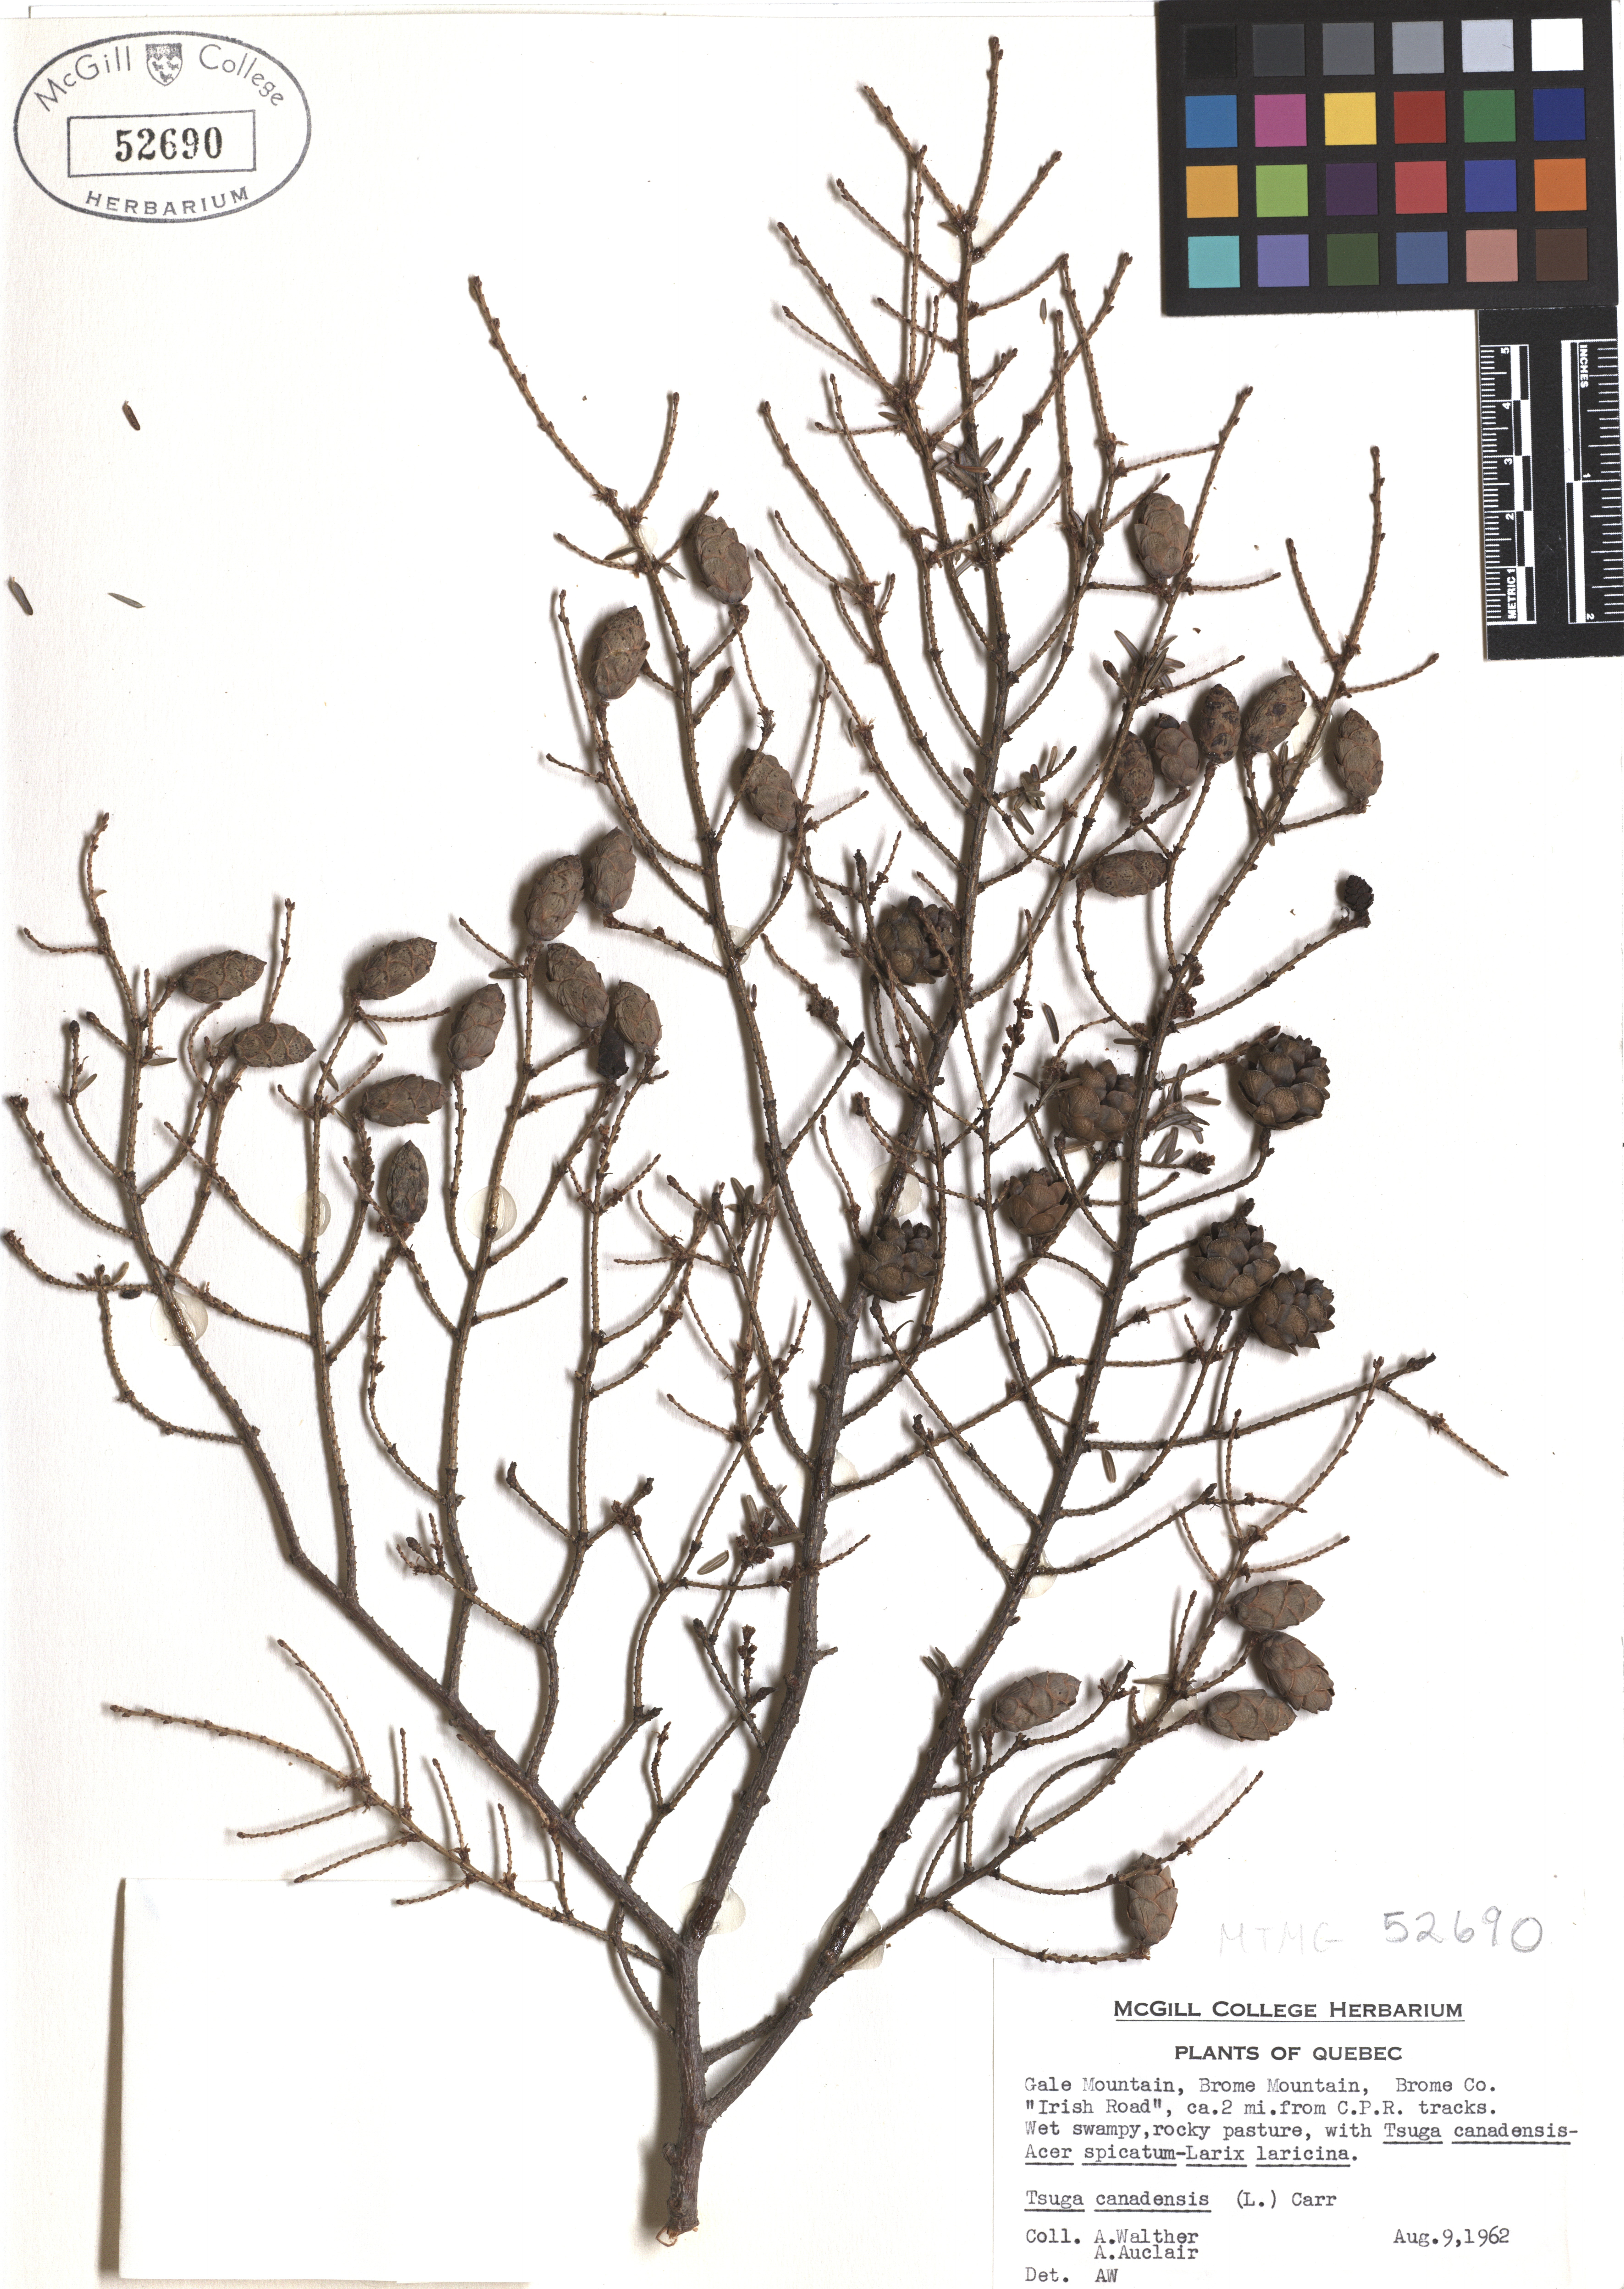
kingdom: Plantae
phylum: Tracheophyta
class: Pinopsida
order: Pinales
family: Pinaceae
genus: Tsuga
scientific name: Tsuga canadensis
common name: Eastern hemlock
